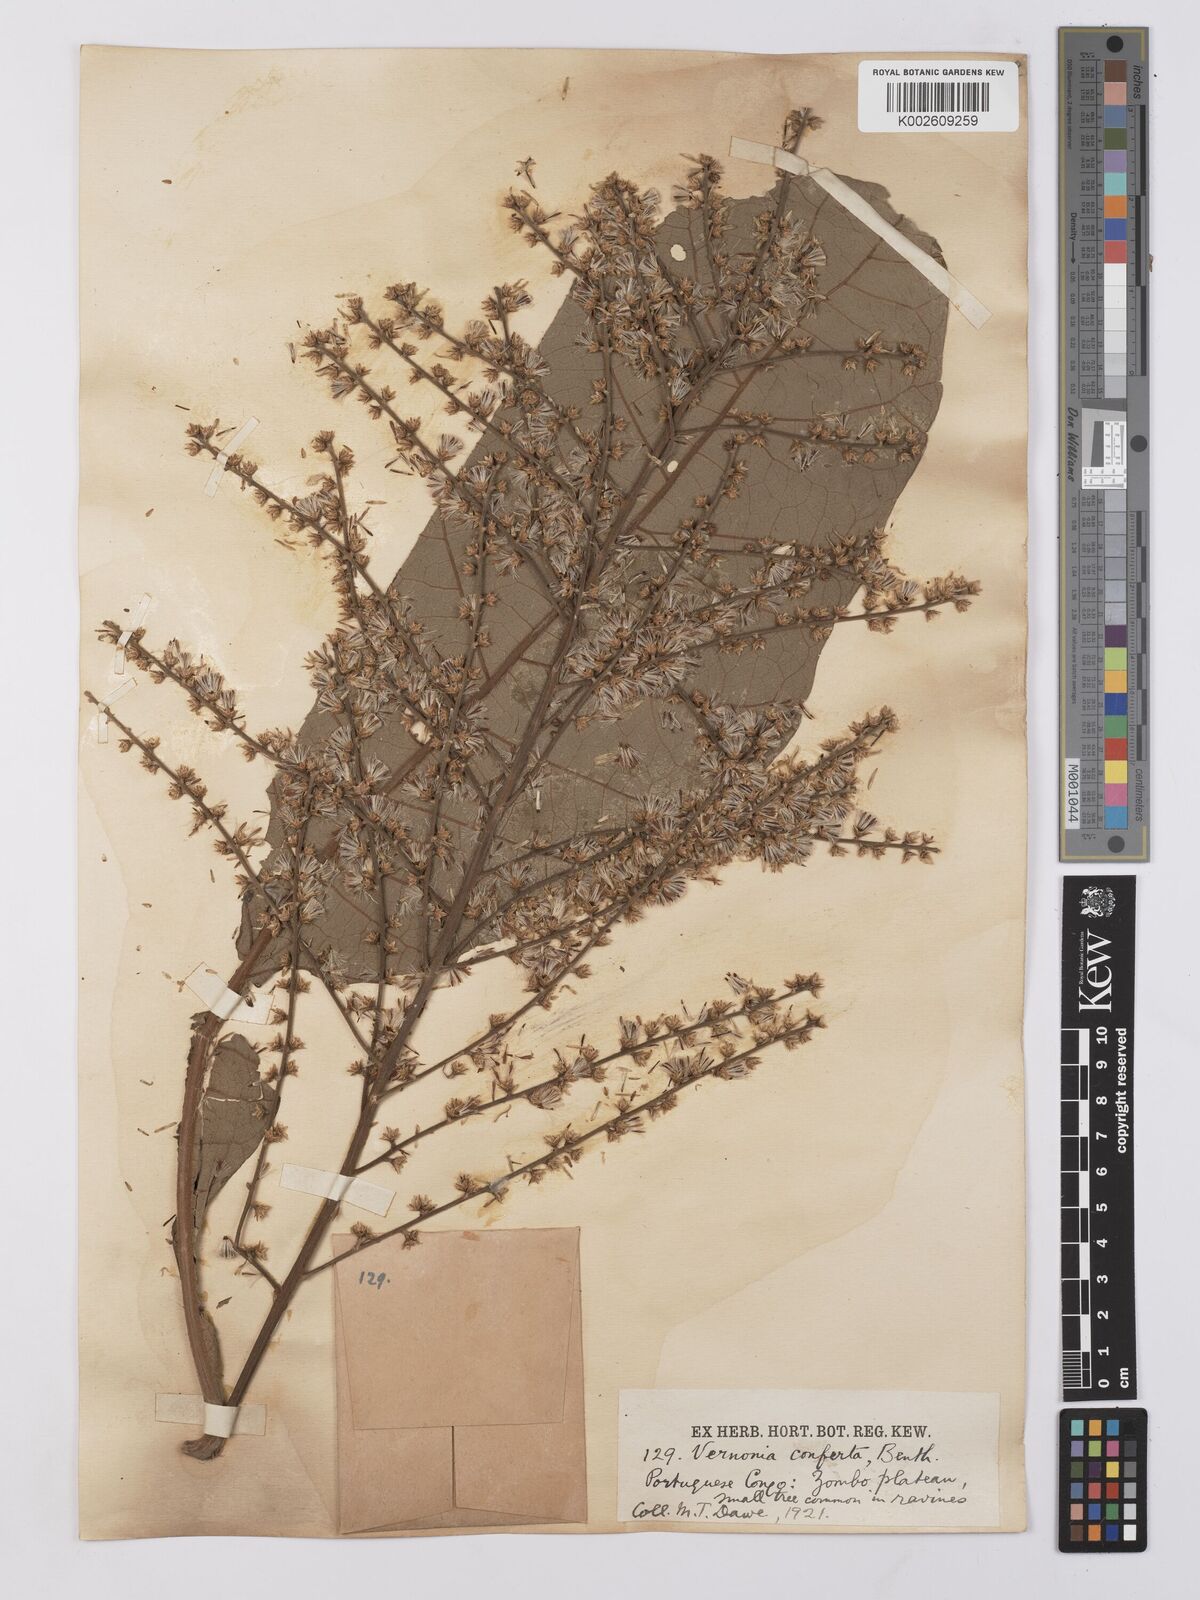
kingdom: Plantae
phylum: Tracheophyta
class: Magnoliopsida
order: Asterales
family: Asteraceae
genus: Monosis
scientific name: Monosis conferta
